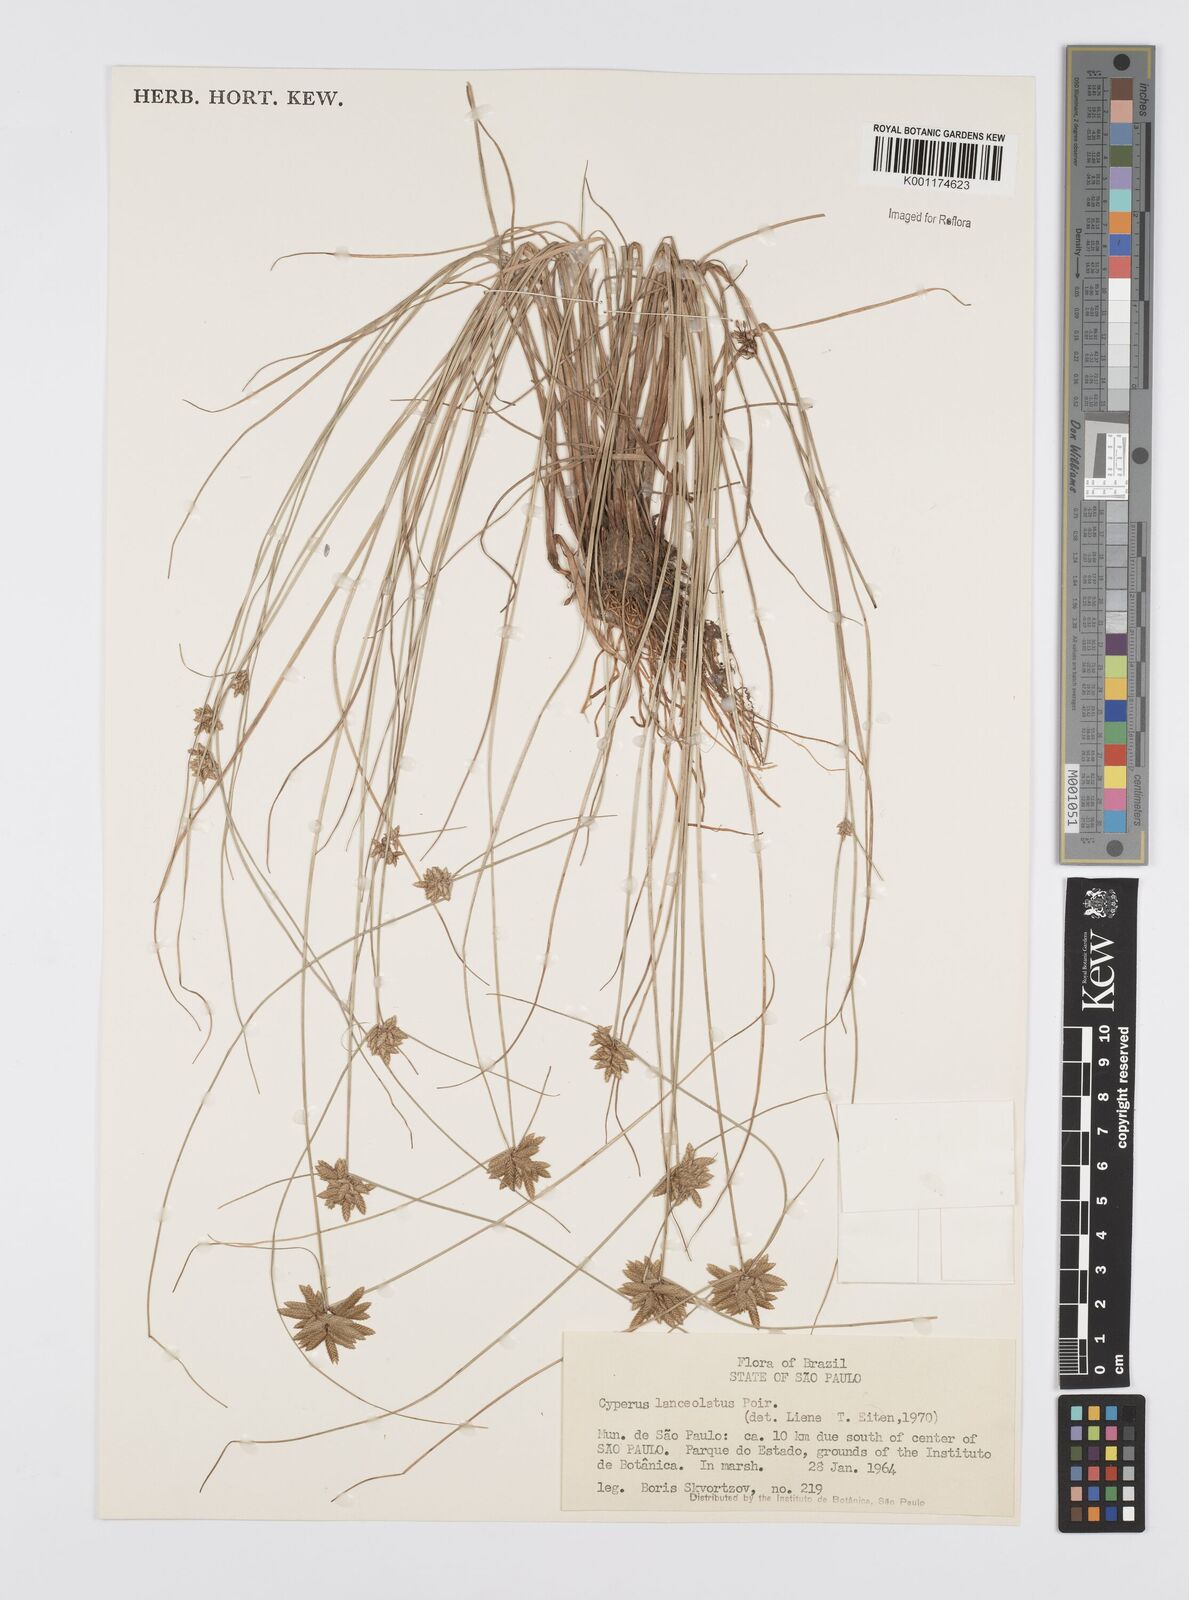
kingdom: Plantae
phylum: Tracheophyta
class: Liliopsida
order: Poales
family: Cyperaceae
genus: Cyperus
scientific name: Cyperus
